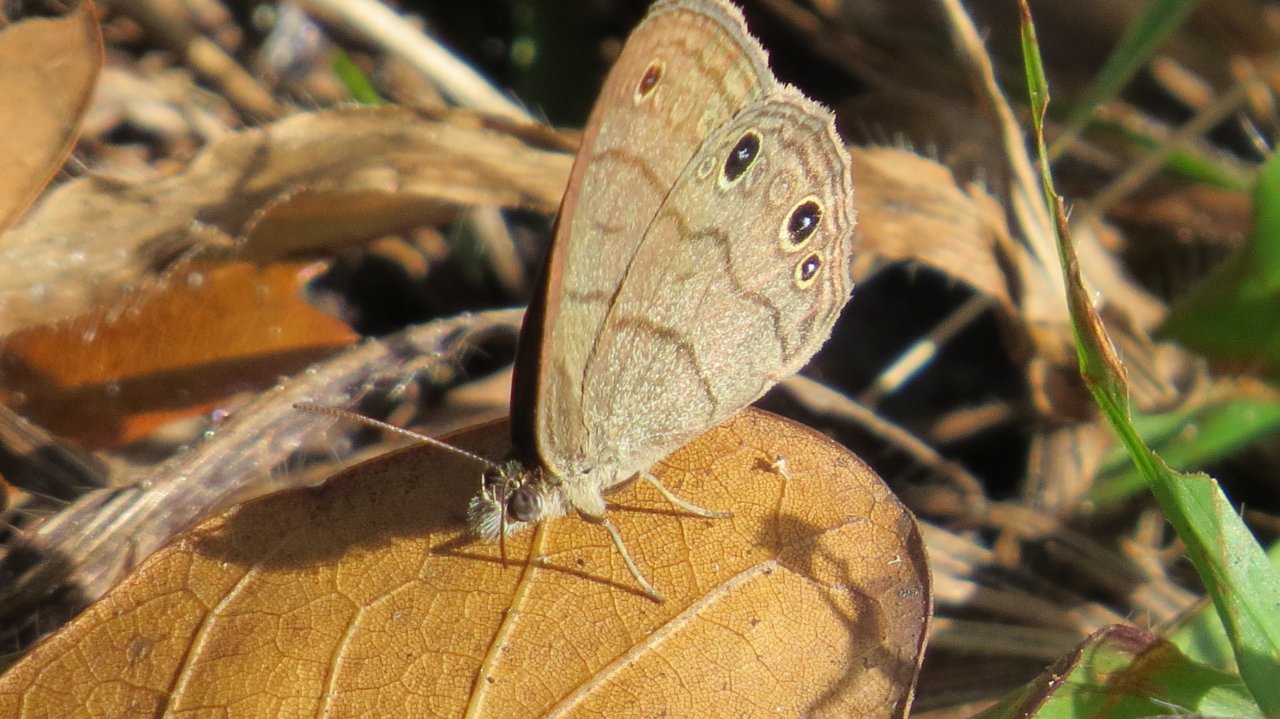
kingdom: Animalia
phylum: Arthropoda
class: Insecta
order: Lepidoptera
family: Nymphalidae
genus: Hermeuptychia
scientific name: Hermeuptychia hermes
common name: Carolina Satyr
